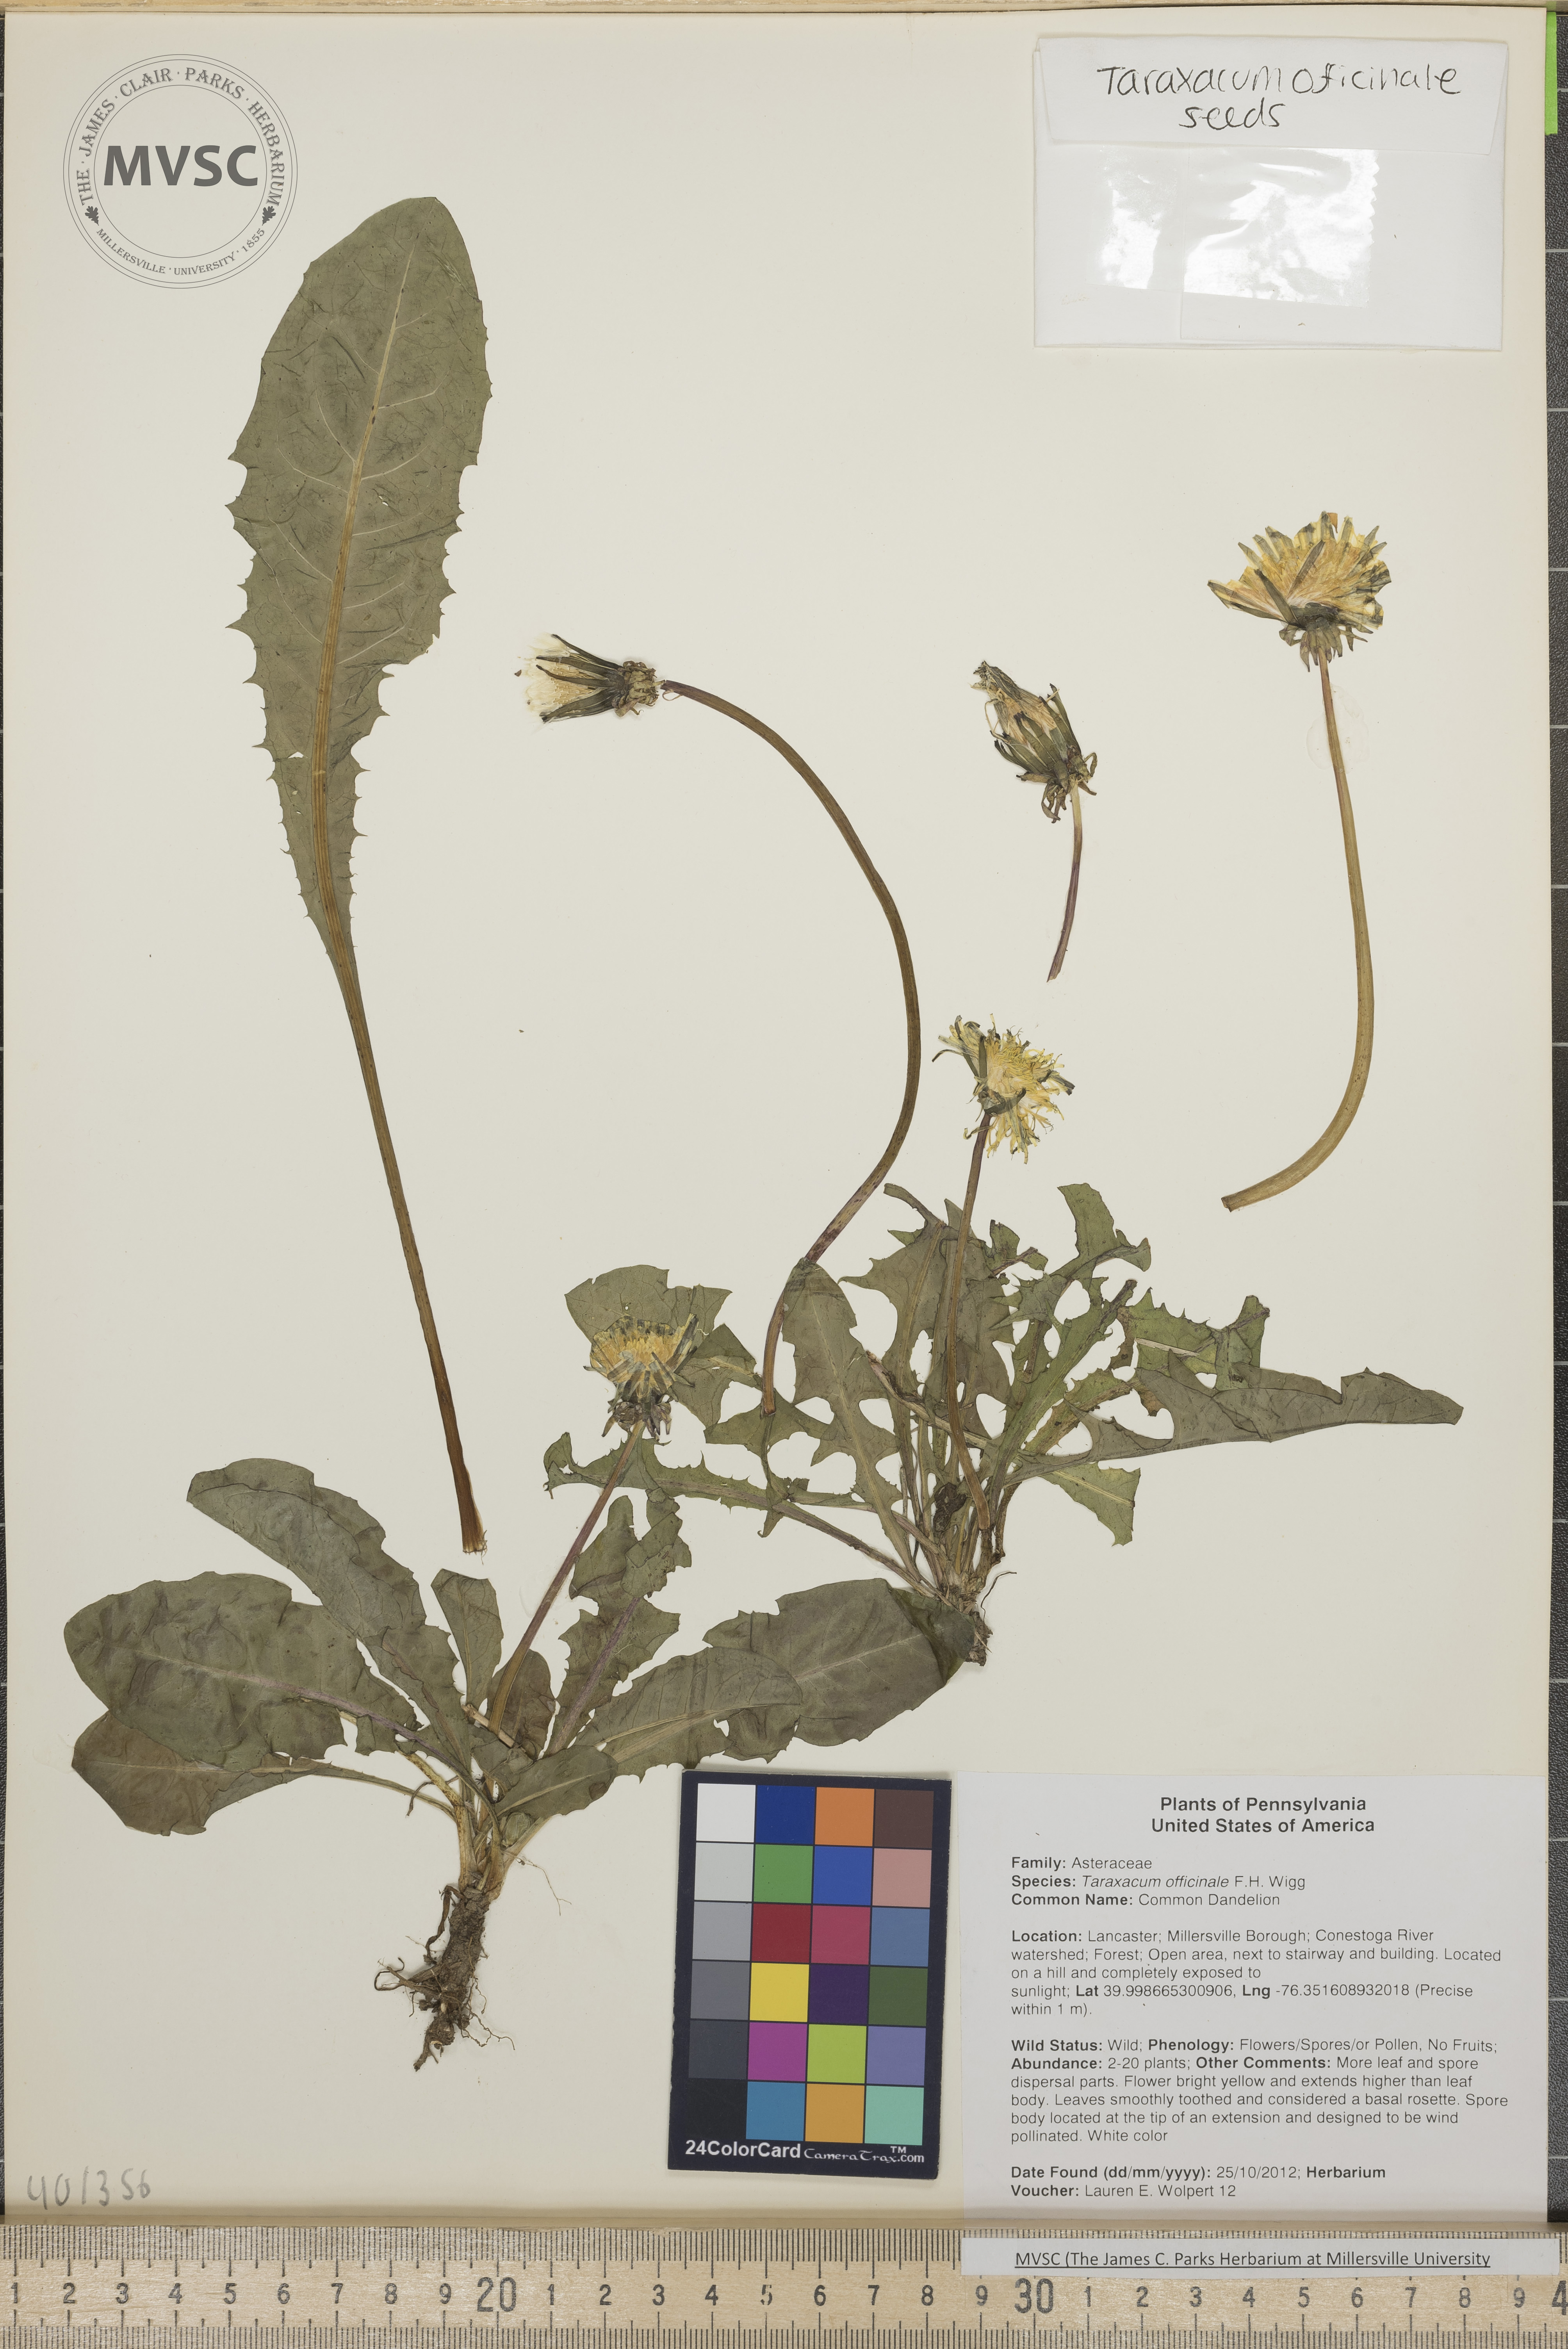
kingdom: Plantae
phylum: Tracheophyta
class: Magnoliopsida
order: Asterales
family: Asteraceae
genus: Taraxacum
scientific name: Taraxacum officinale
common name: Dandelion
